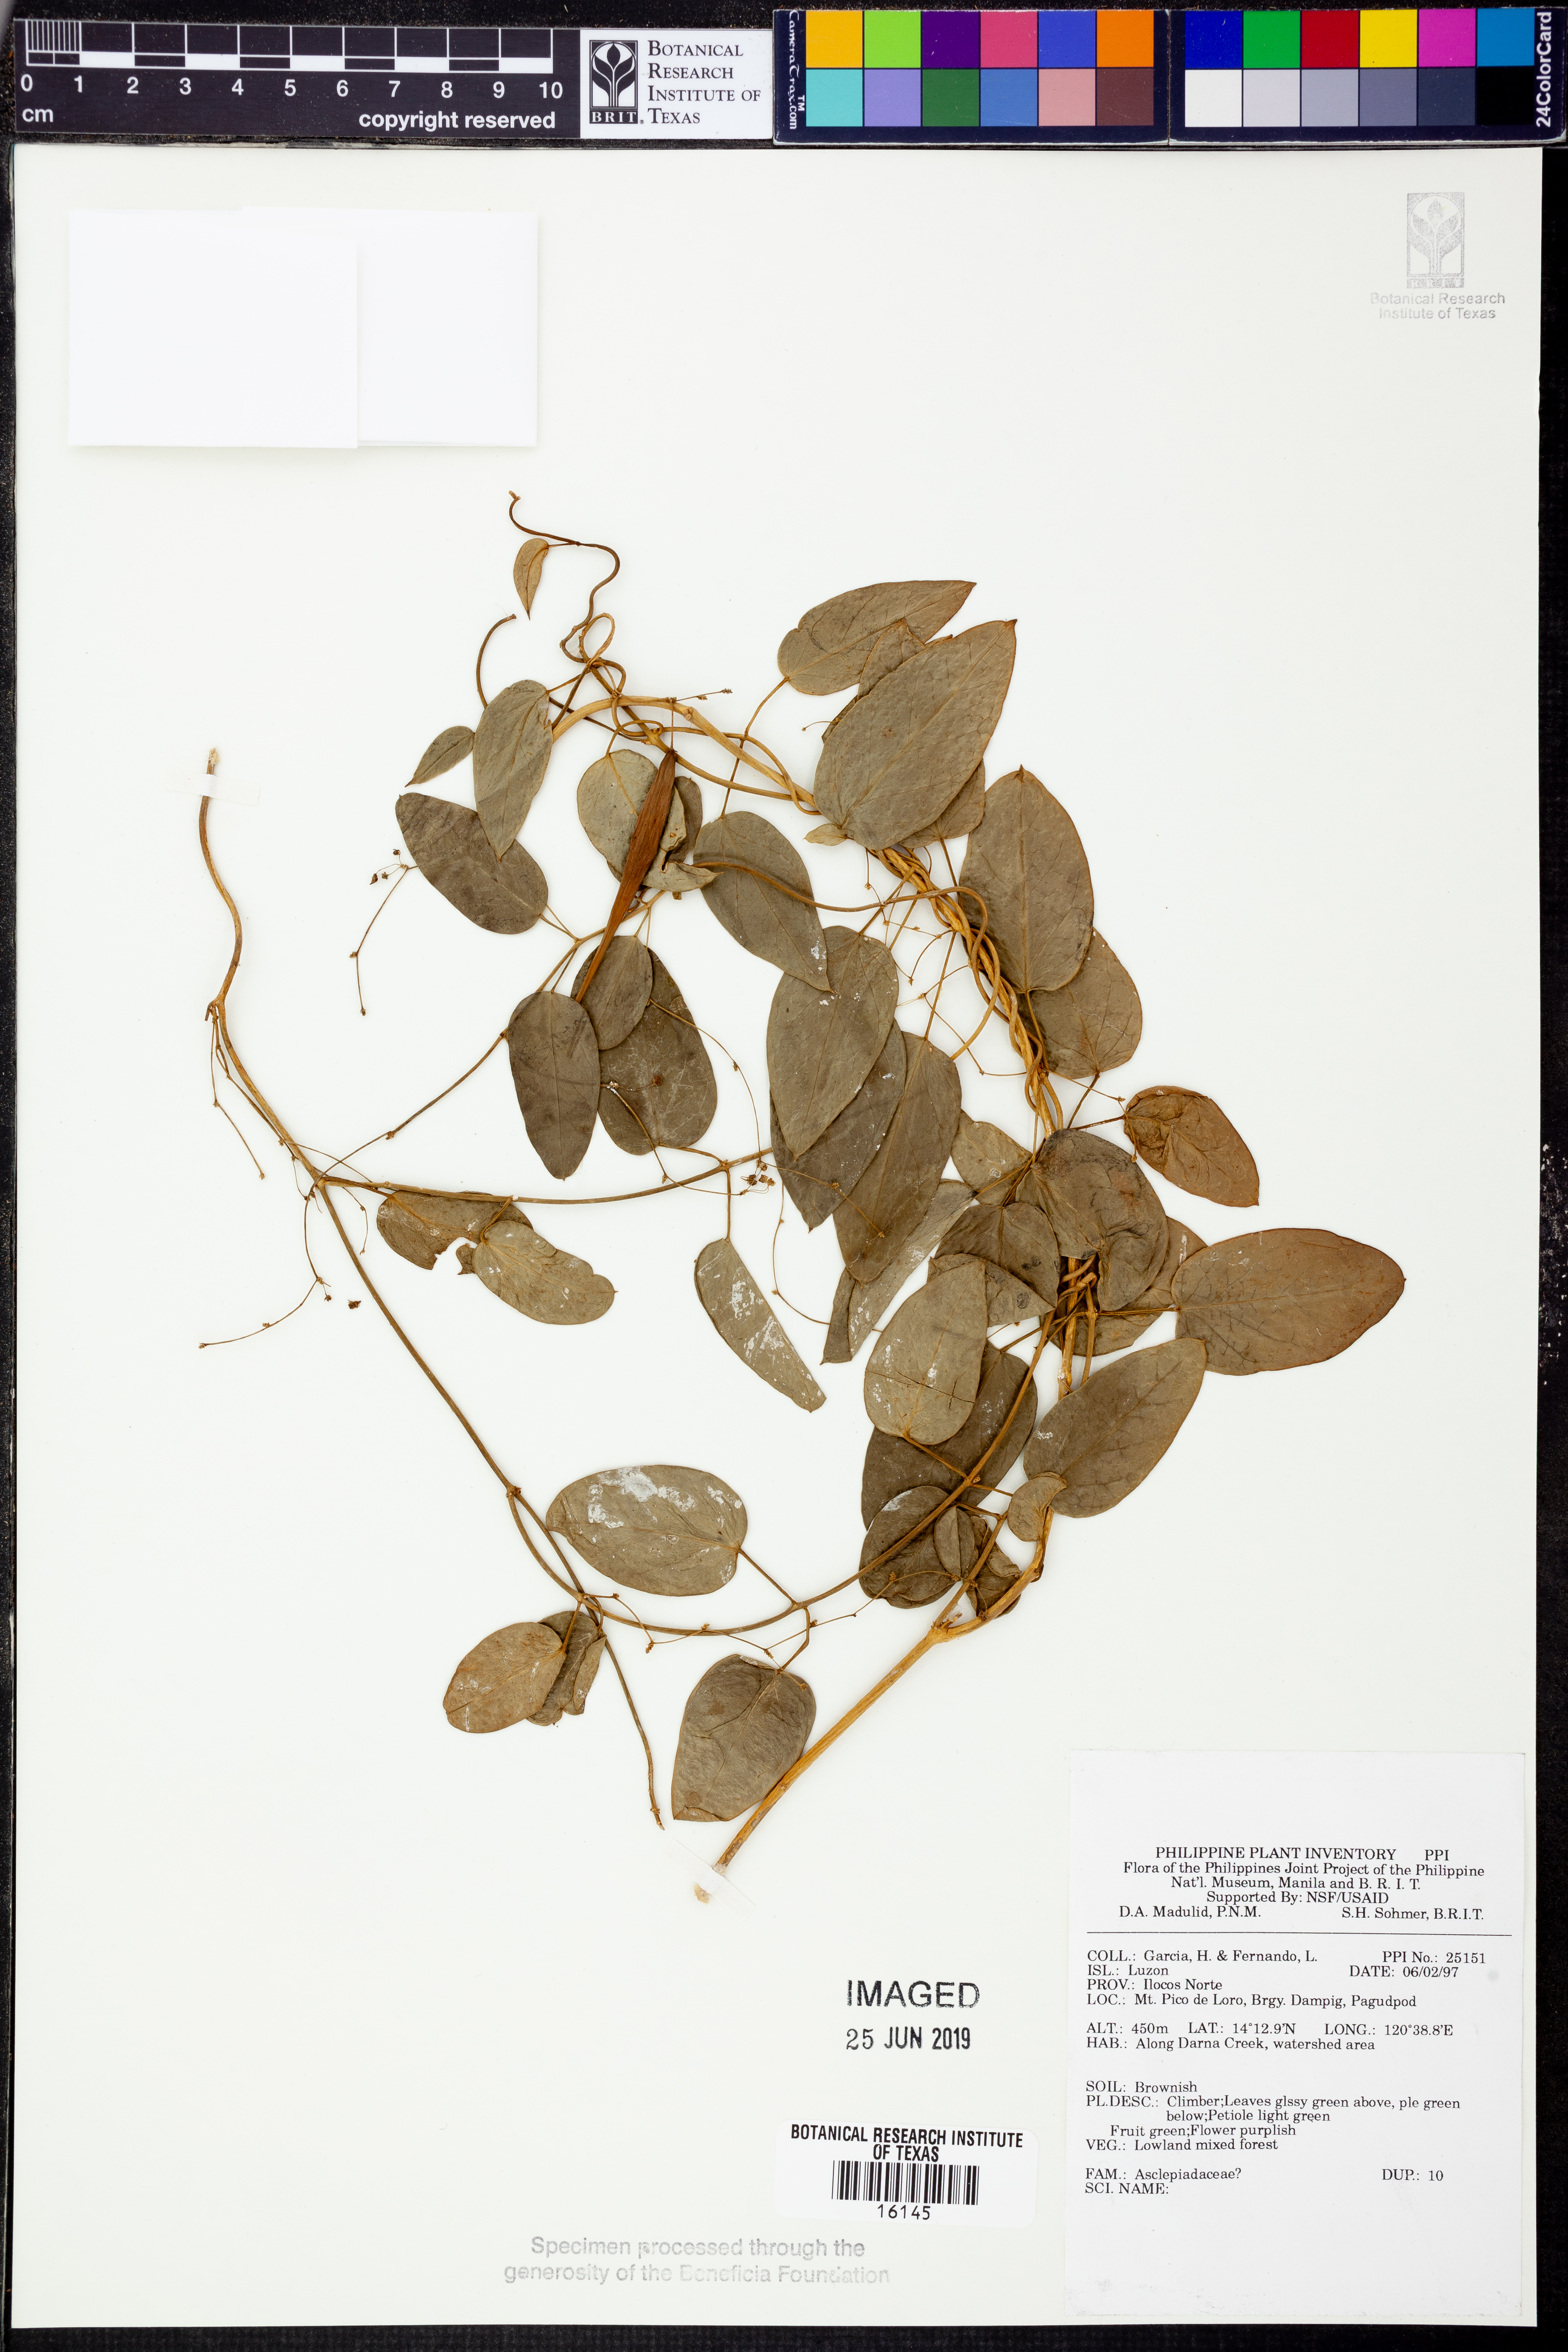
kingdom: Plantae
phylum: Tracheophyta
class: Magnoliopsida
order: Gentianales
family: Apocynaceae
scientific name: Apocynaceae
